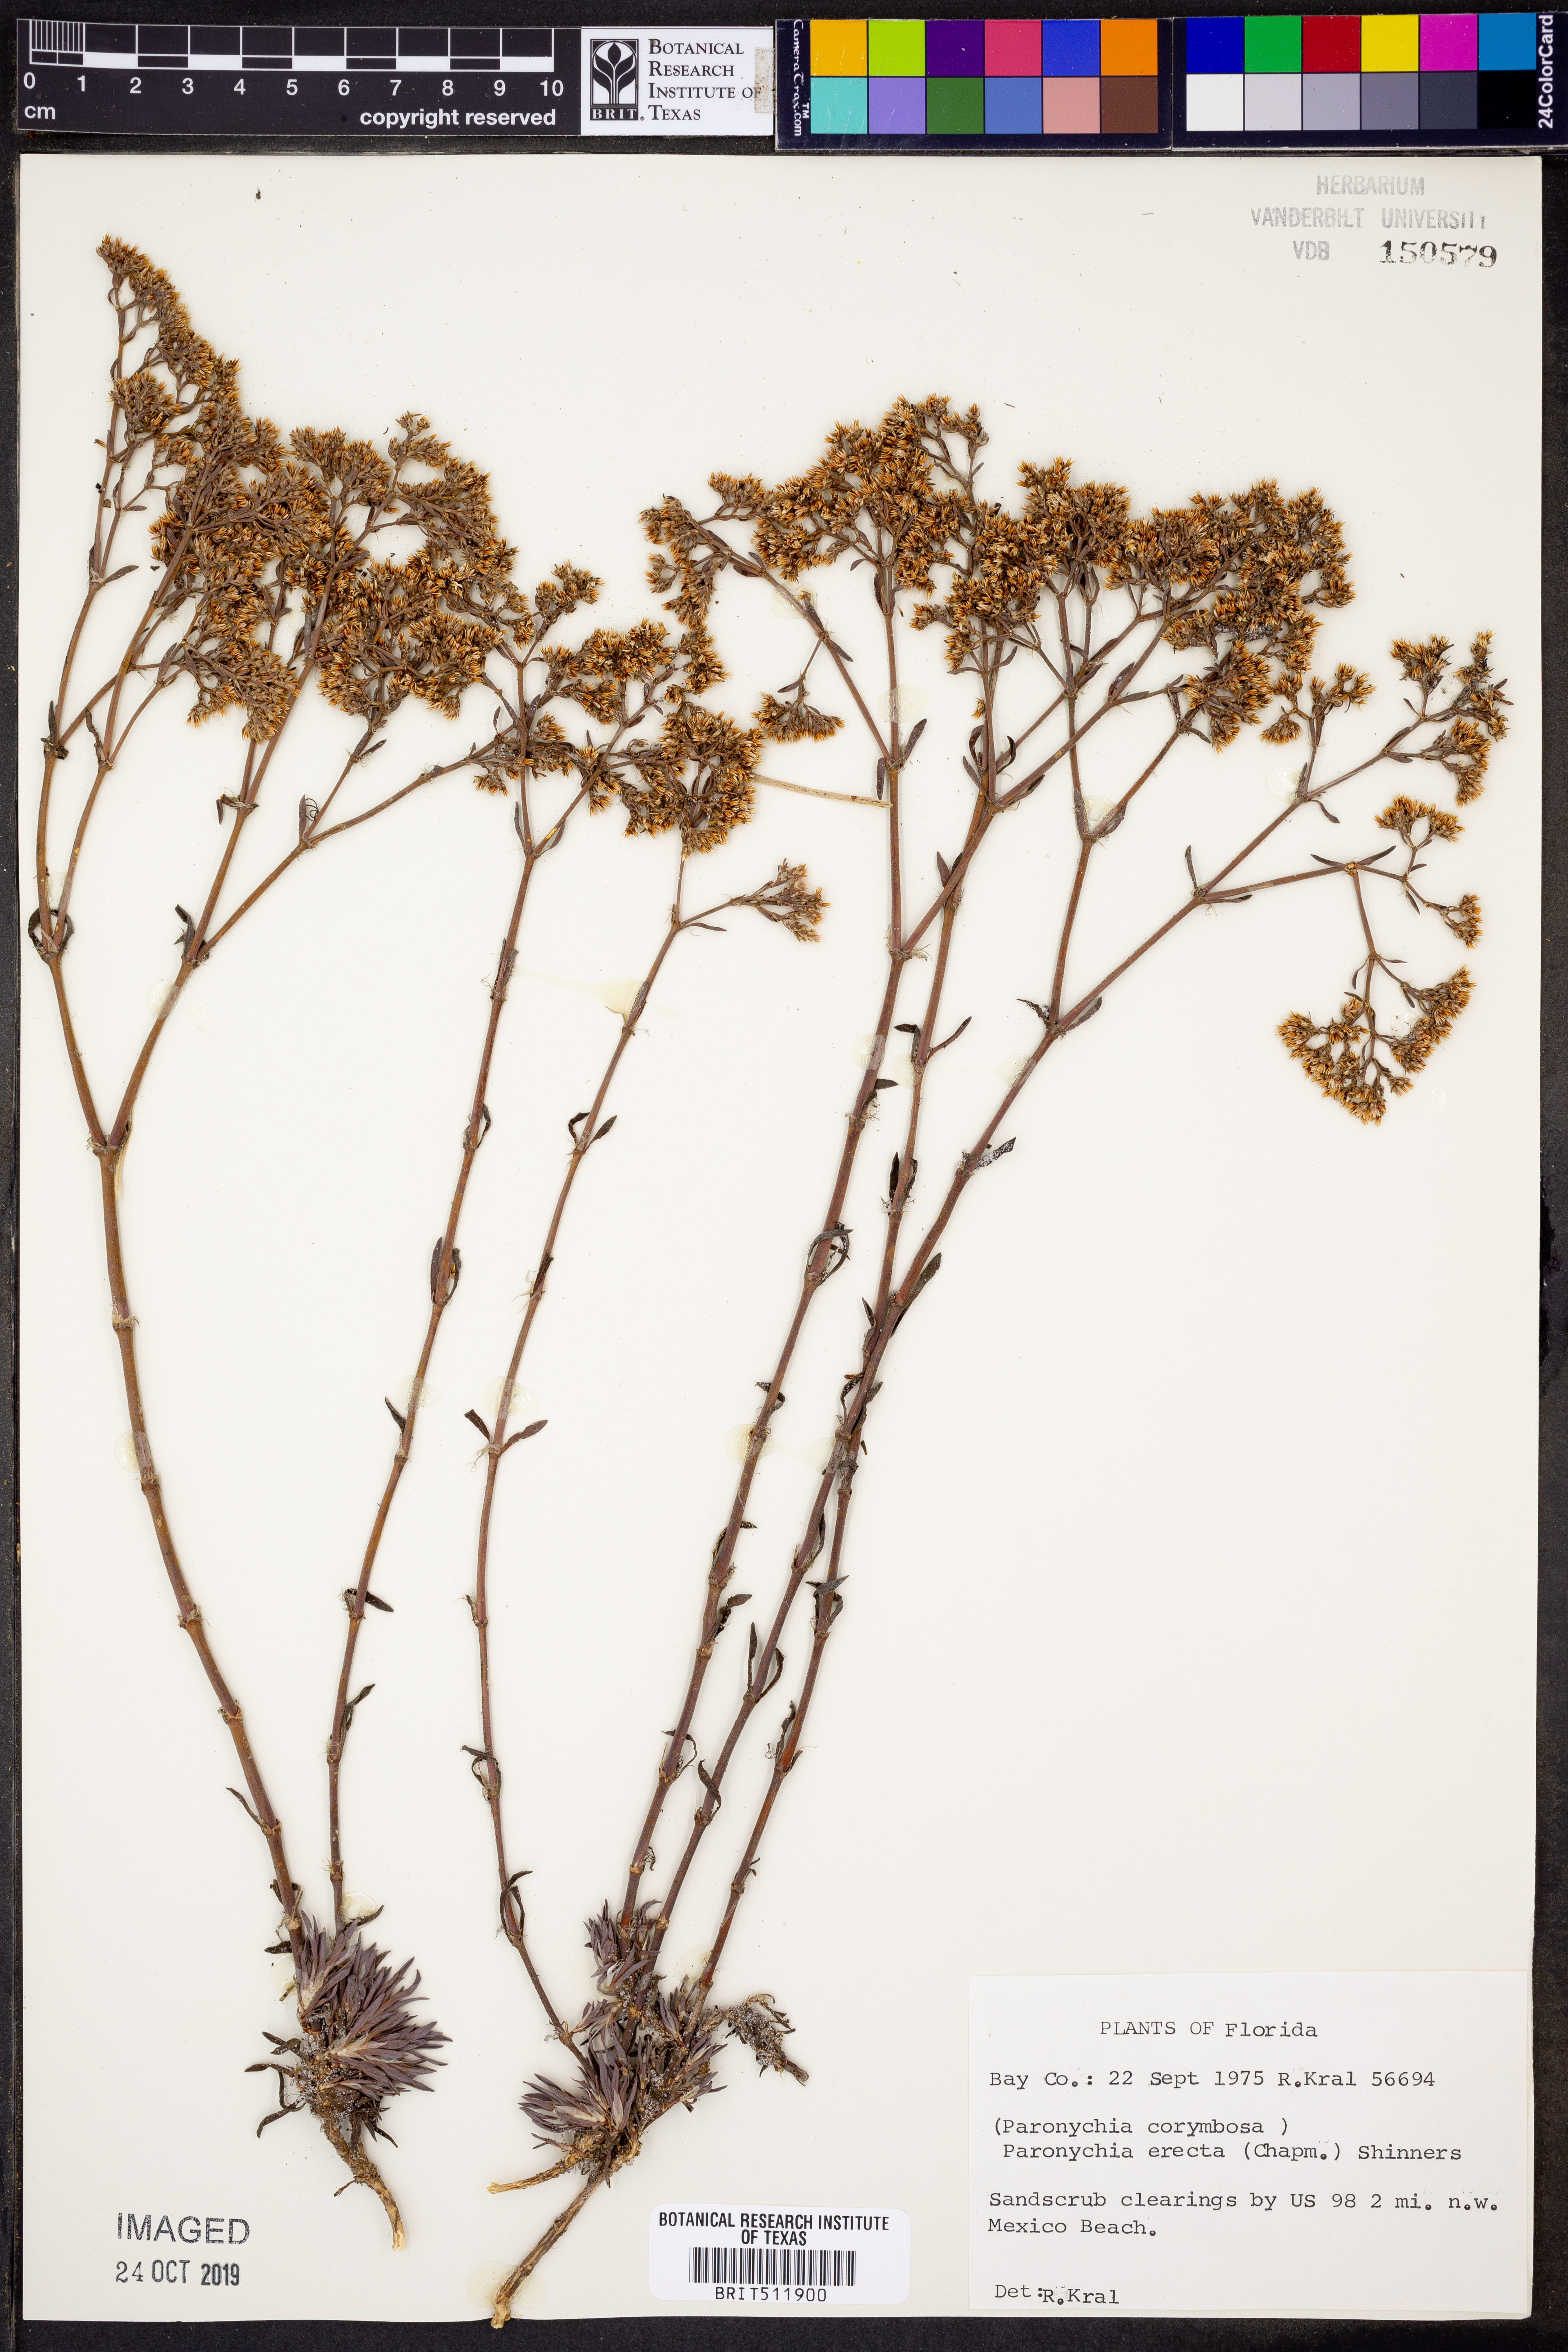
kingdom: Plantae
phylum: Tracheophyta
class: Magnoliopsida
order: Caryophyllales
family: Caryophyllaceae
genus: Paronychia
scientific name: Paronychia erecta
